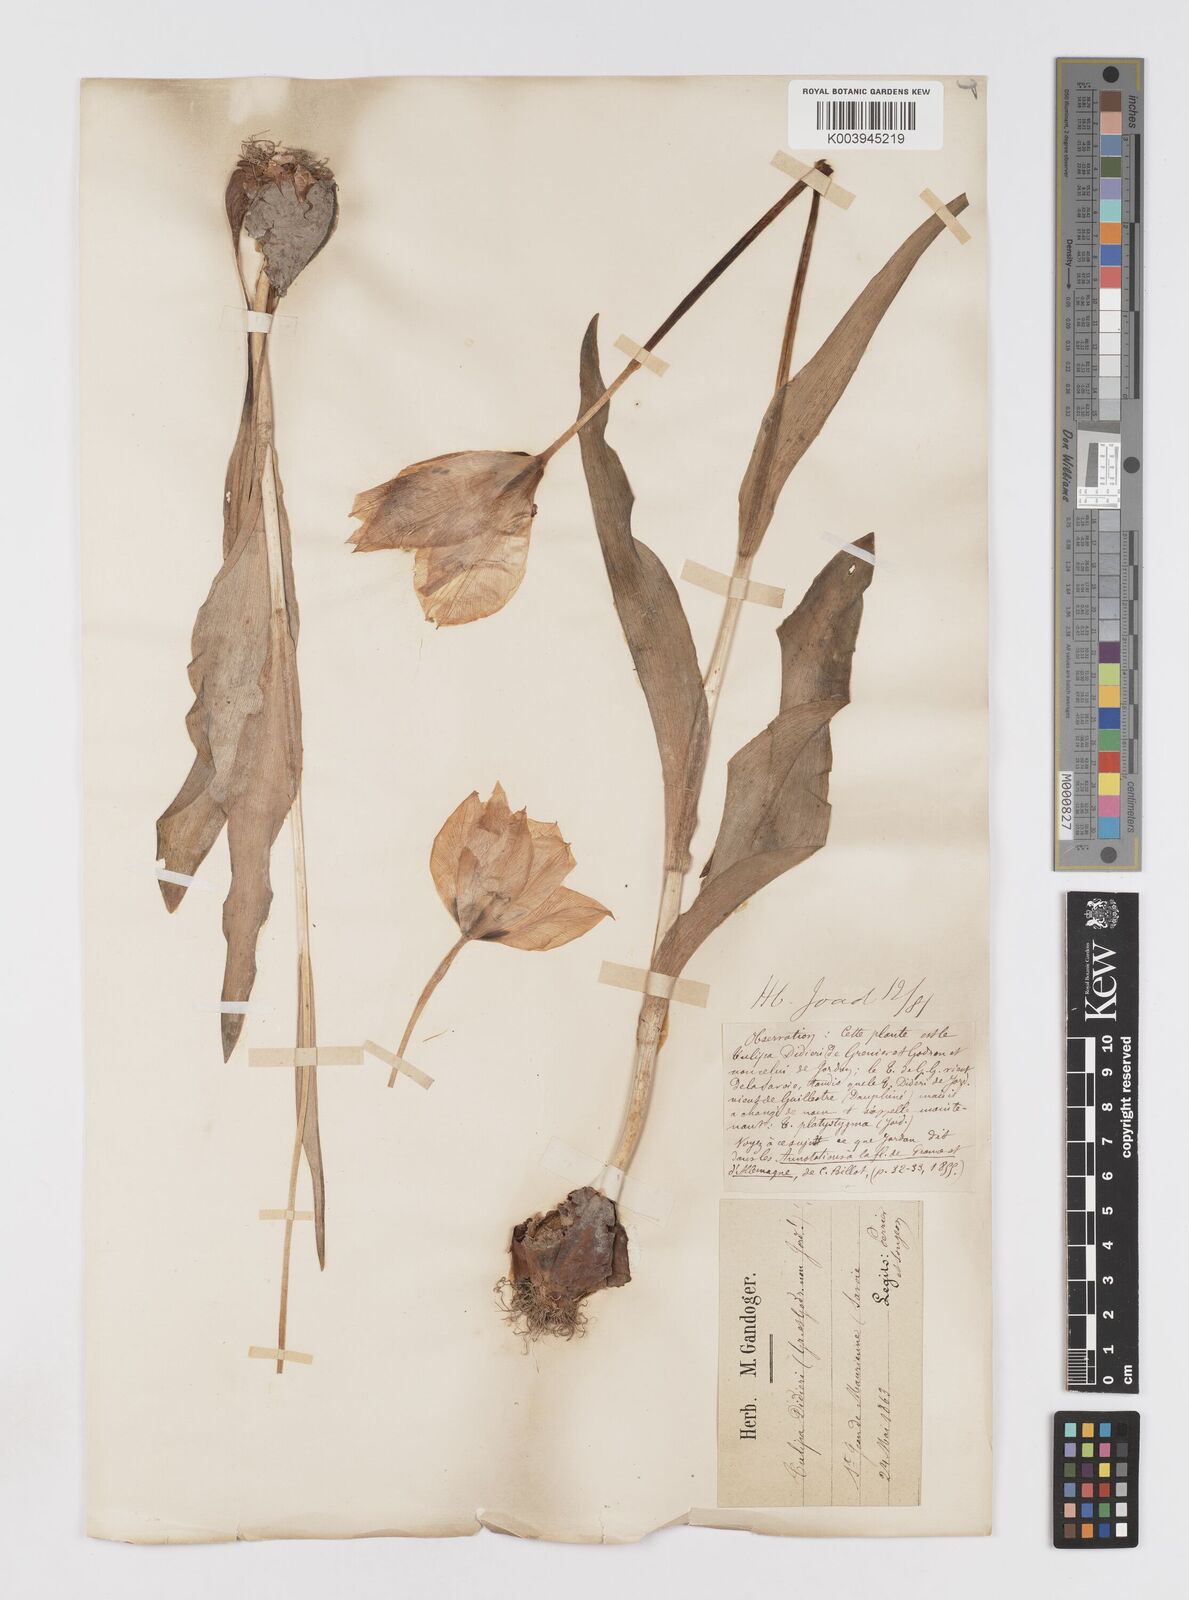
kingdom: Plantae
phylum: Tracheophyta
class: Liliopsida
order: Liliales
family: Liliaceae
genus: Tulipa
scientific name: Tulipa gesneriana
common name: Garden tulip
